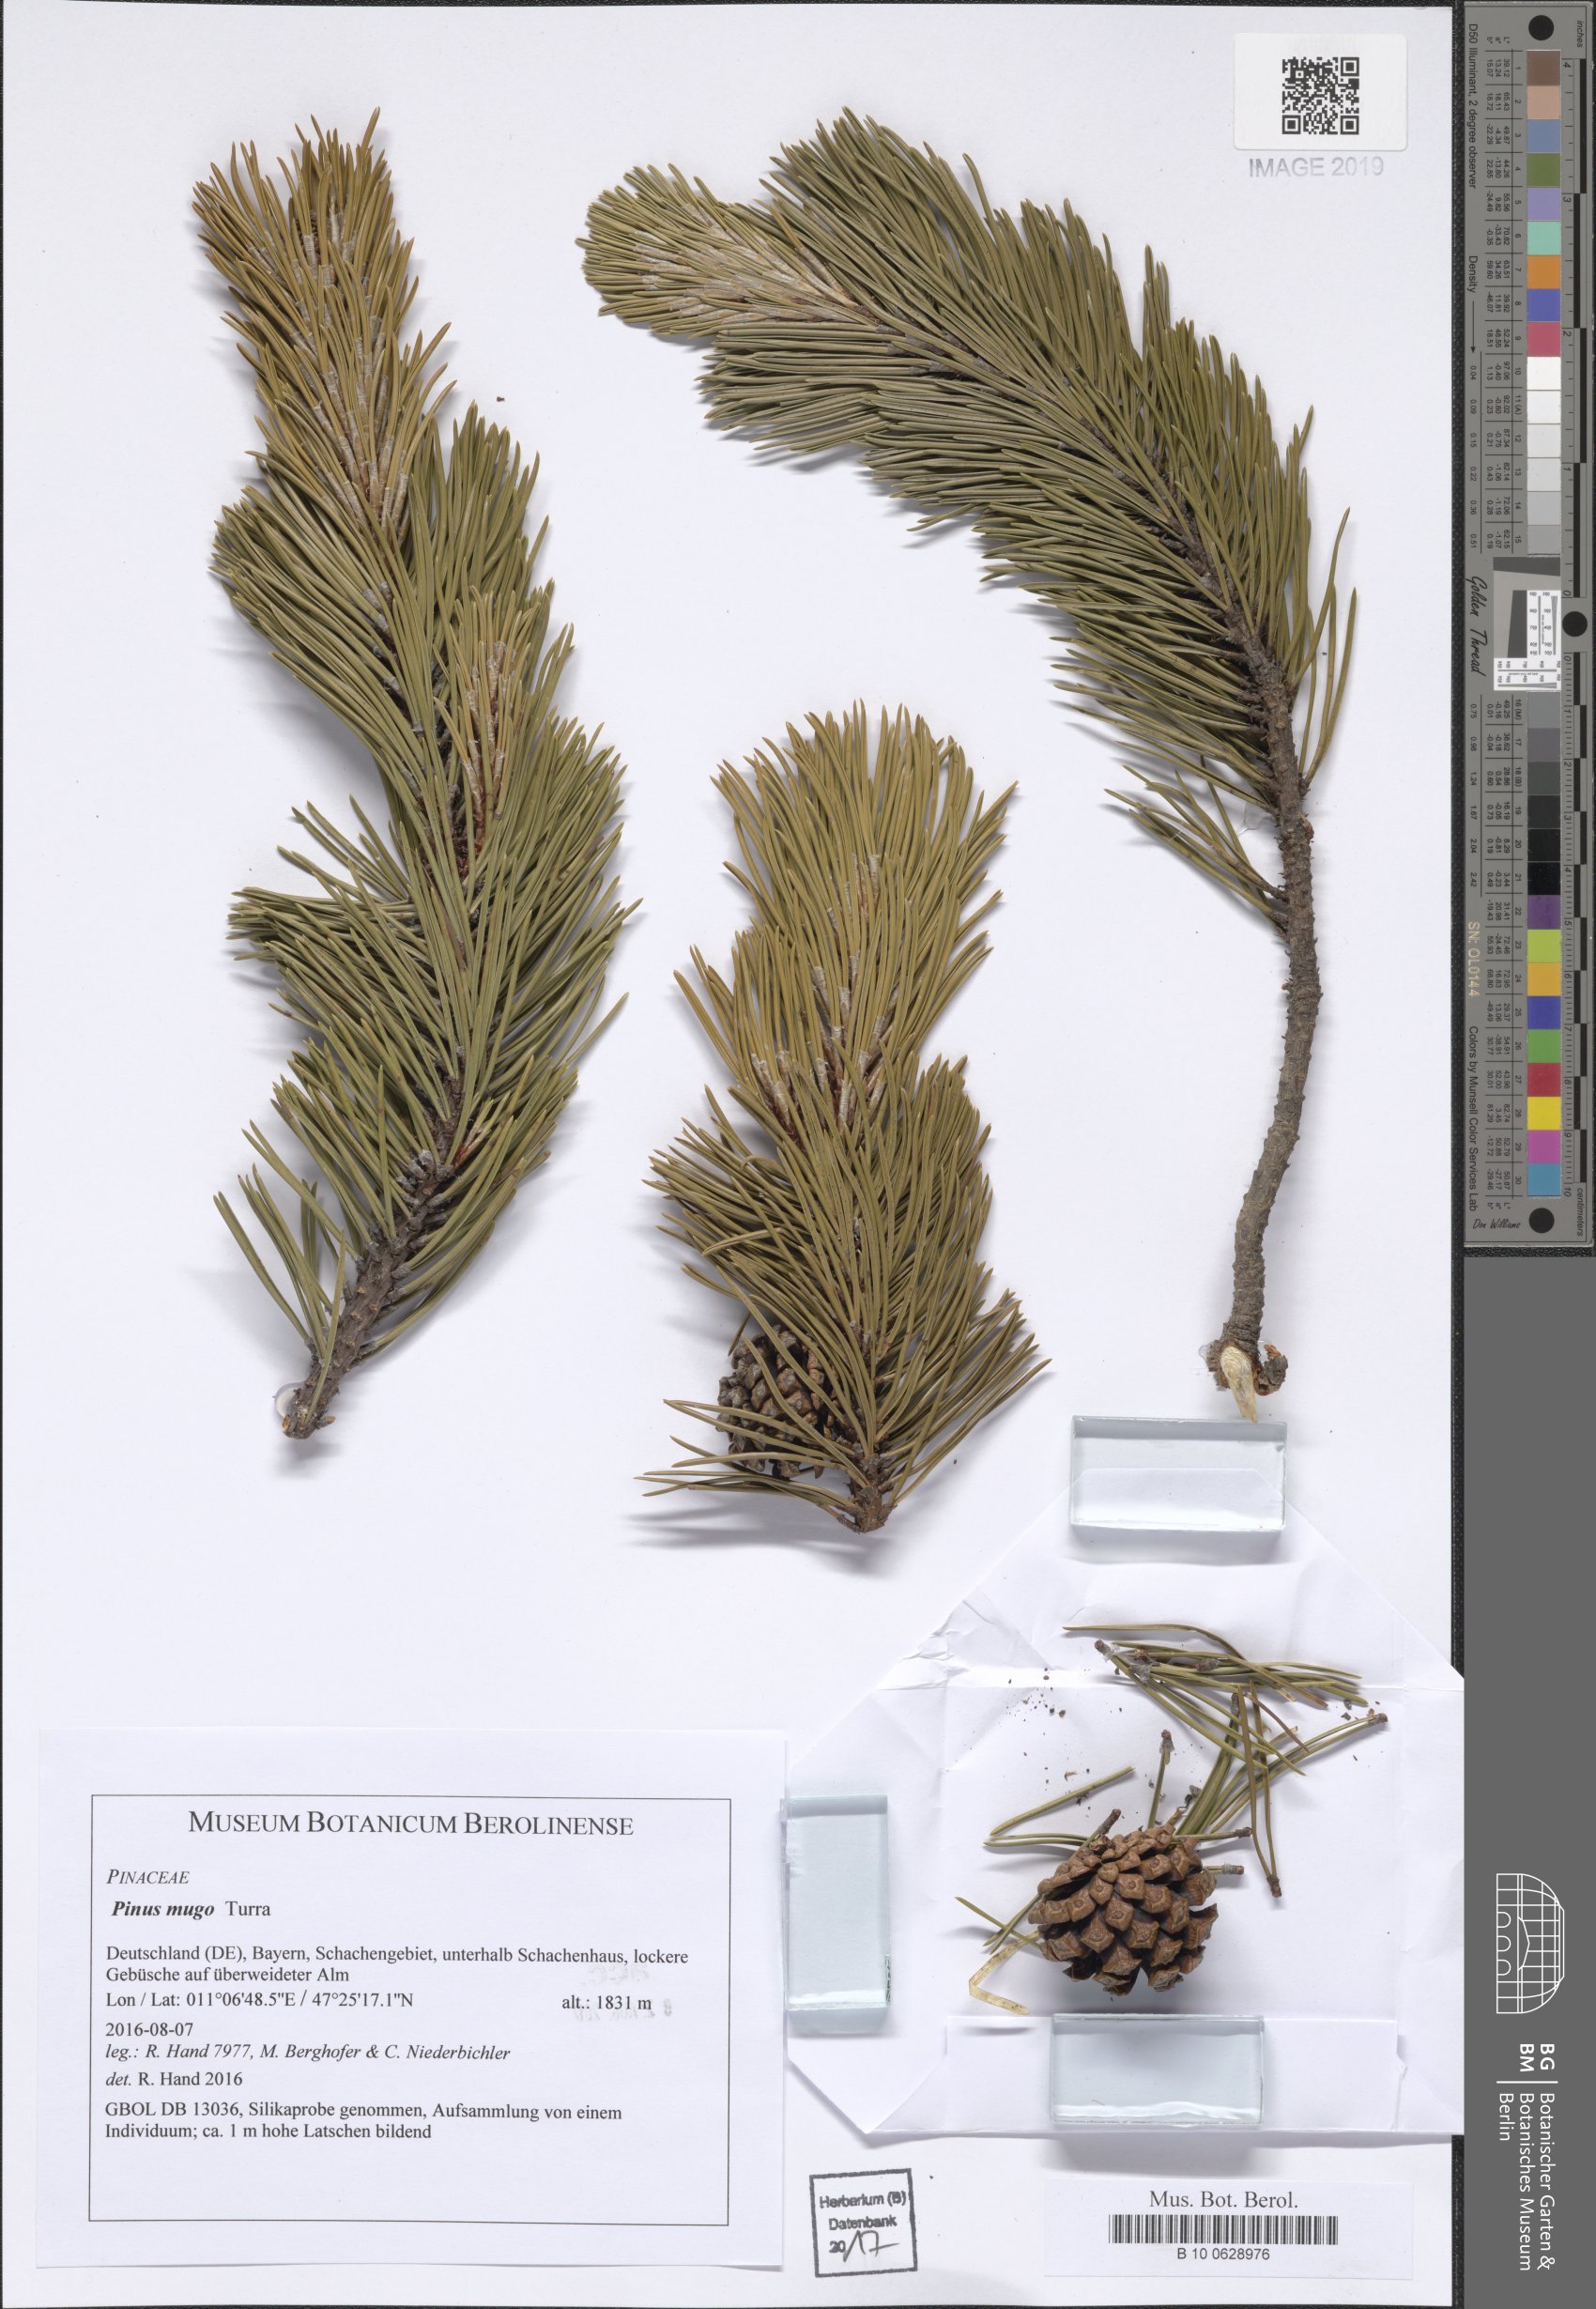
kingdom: Plantae
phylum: Tracheophyta
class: Pinopsida
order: Pinales
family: Pinaceae
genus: Pinus
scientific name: Pinus mugo
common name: Mugo pine
